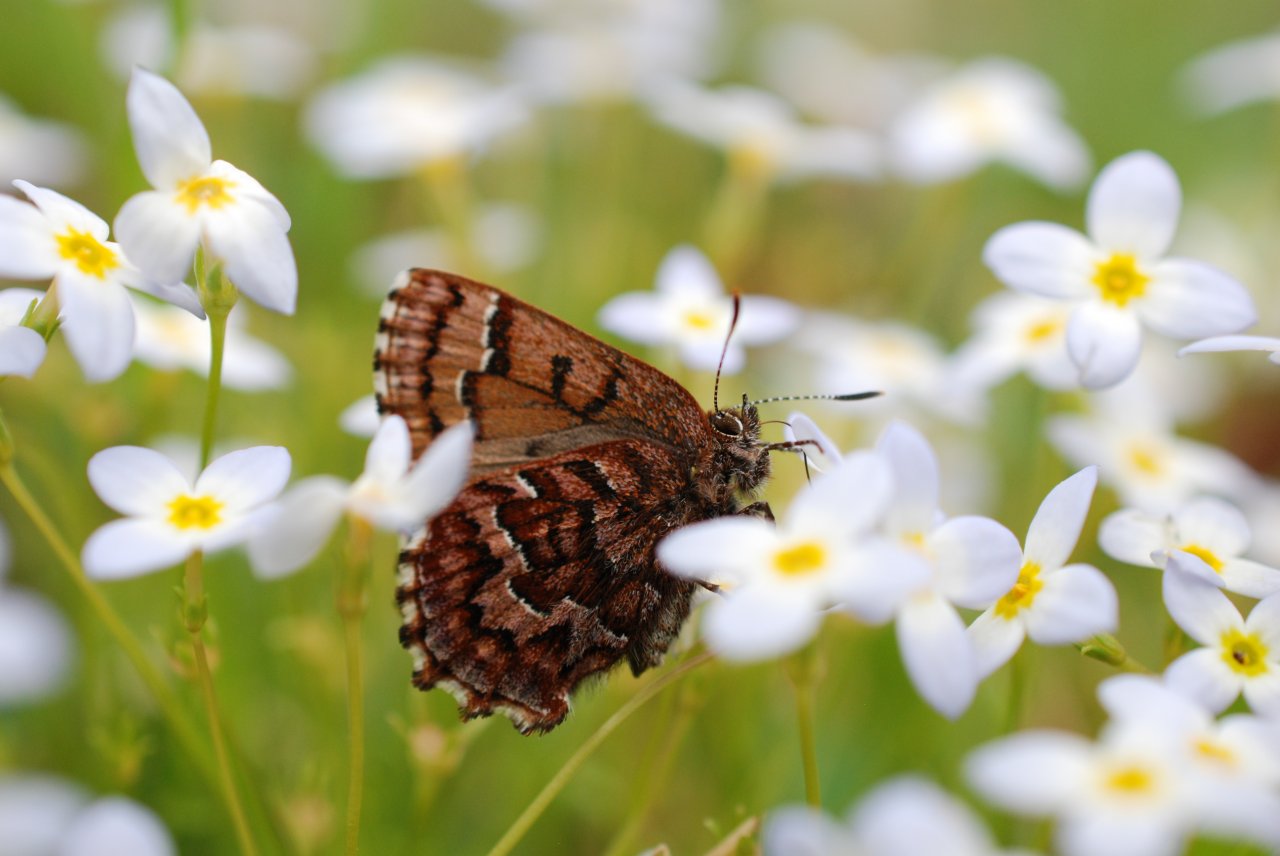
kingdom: Animalia
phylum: Arthropoda
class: Insecta
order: Lepidoptera
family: Lycaenidae
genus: Incisalia
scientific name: Incisalia niphon
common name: Eastern Pine Elfin
